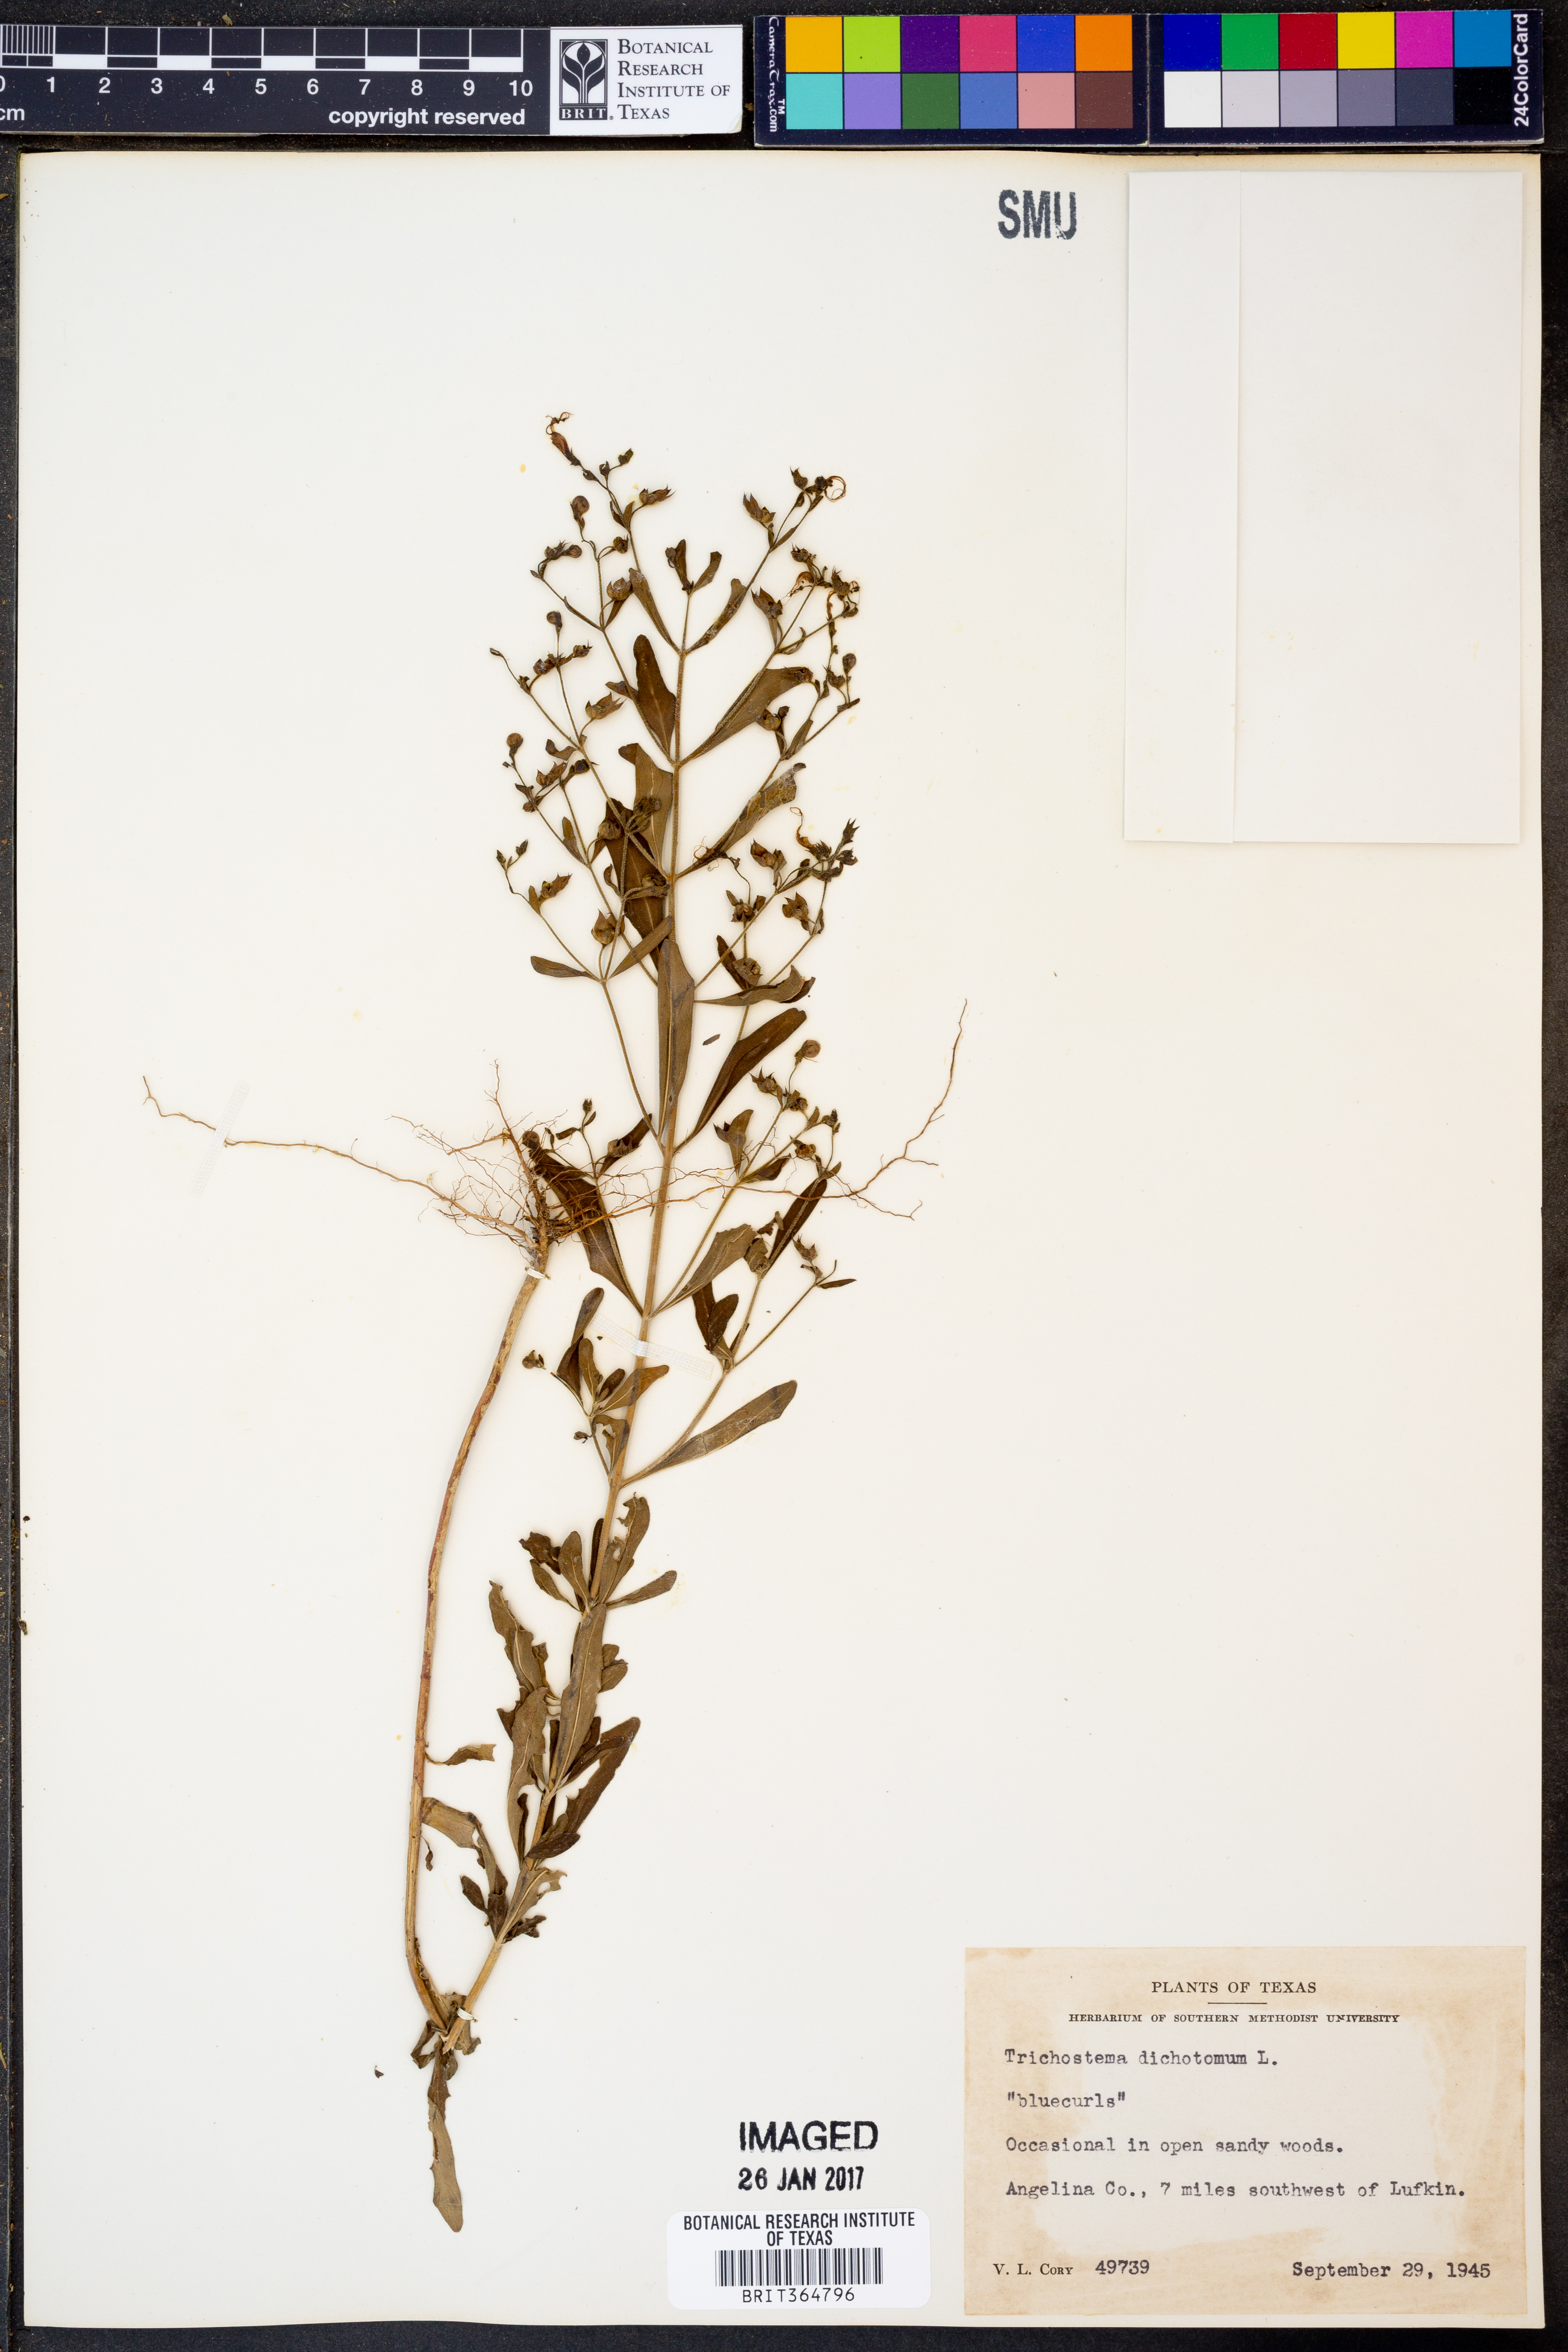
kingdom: Plantae
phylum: Tracheophyta
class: Magnoliopsida
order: Lamiales
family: Lamiaceae
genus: Trichostema
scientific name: Trichostema dichotomum
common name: Bastard pennyroyal
